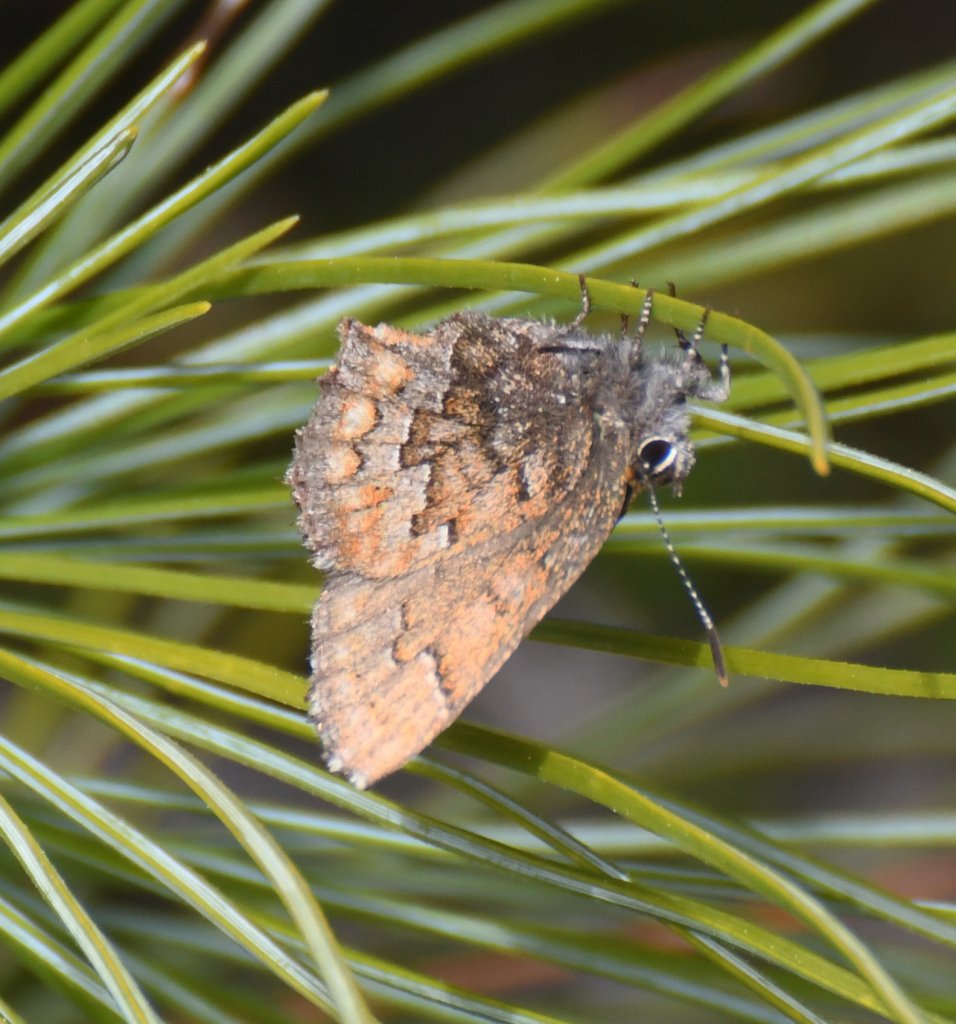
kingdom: Animalia
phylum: Arthropoda
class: Insecta
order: Lepidoptera
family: Lycaenidae
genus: Incisalia
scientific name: Incisalia niphon
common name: Eastern Pine Elfin
